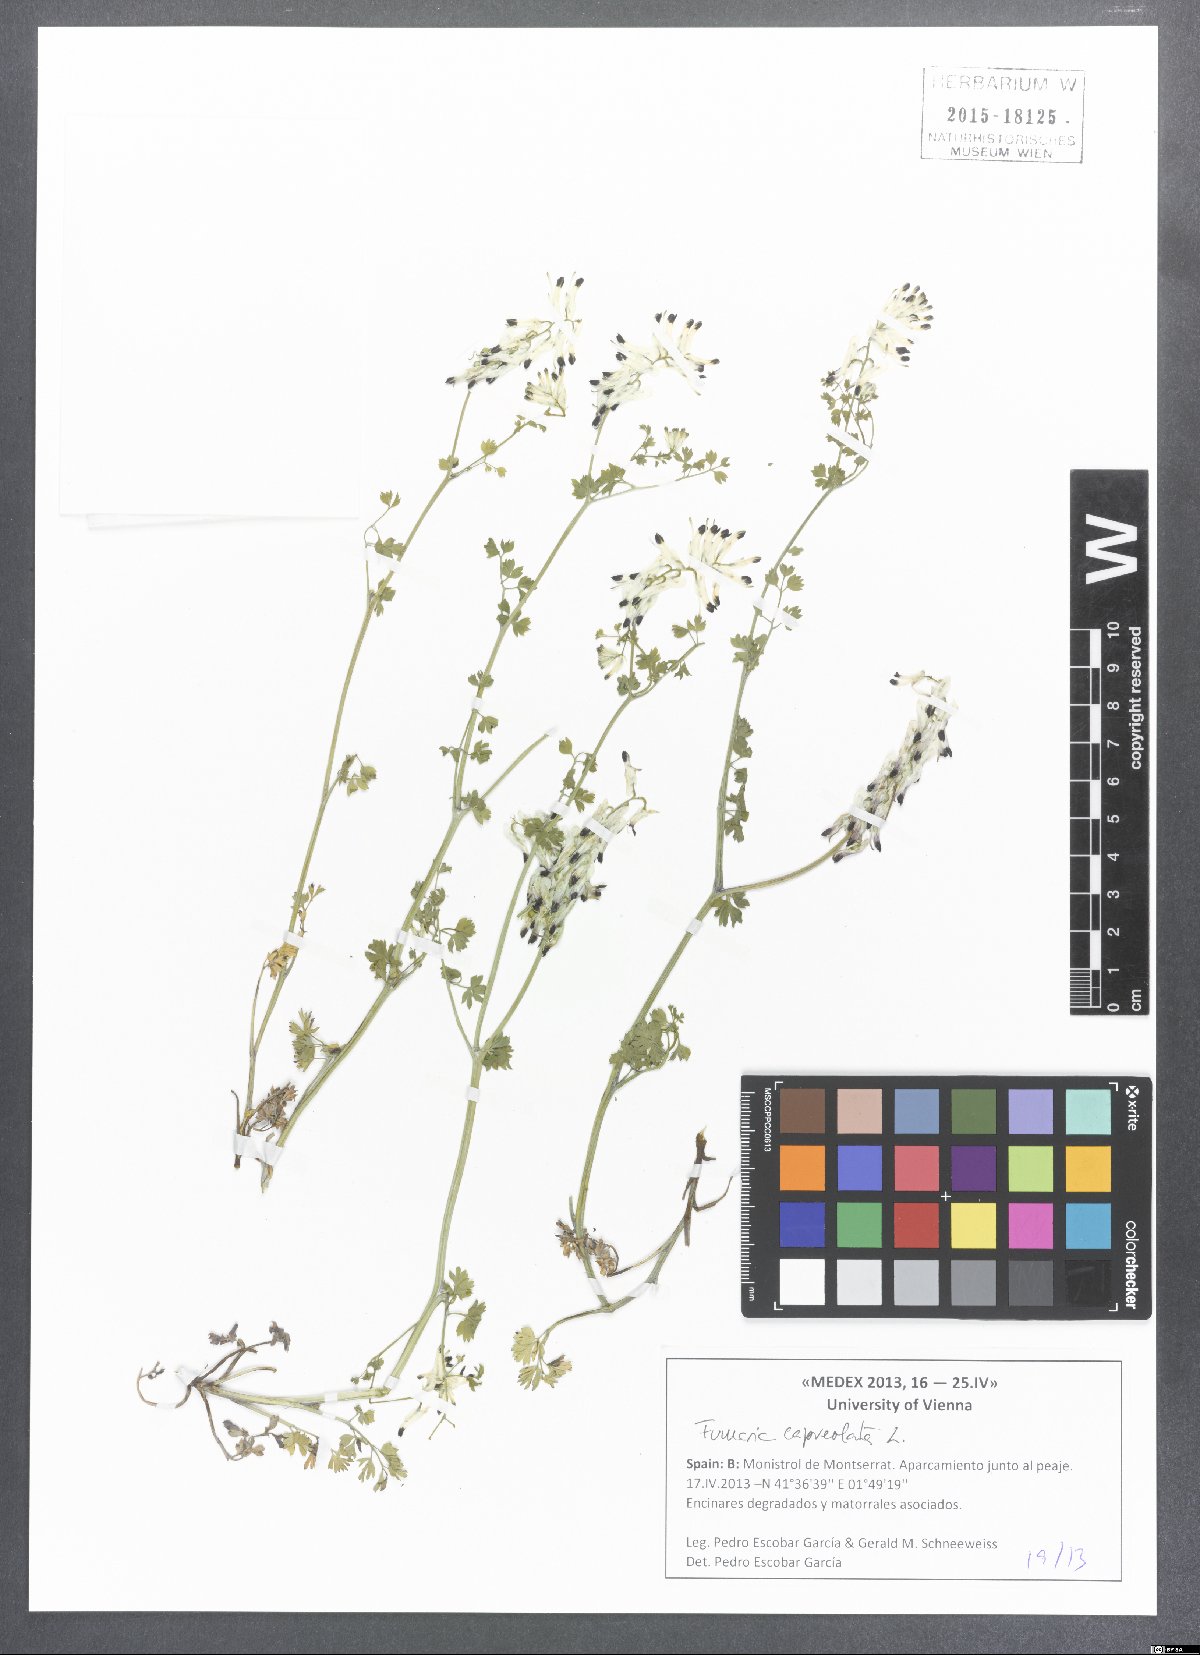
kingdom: Plantae
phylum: Tracheophyta
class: Magnoliopsida
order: Ranunculales
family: Papaveraceae
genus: Fumaria
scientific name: Fumaria capreolata
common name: White ramping-fumitory
